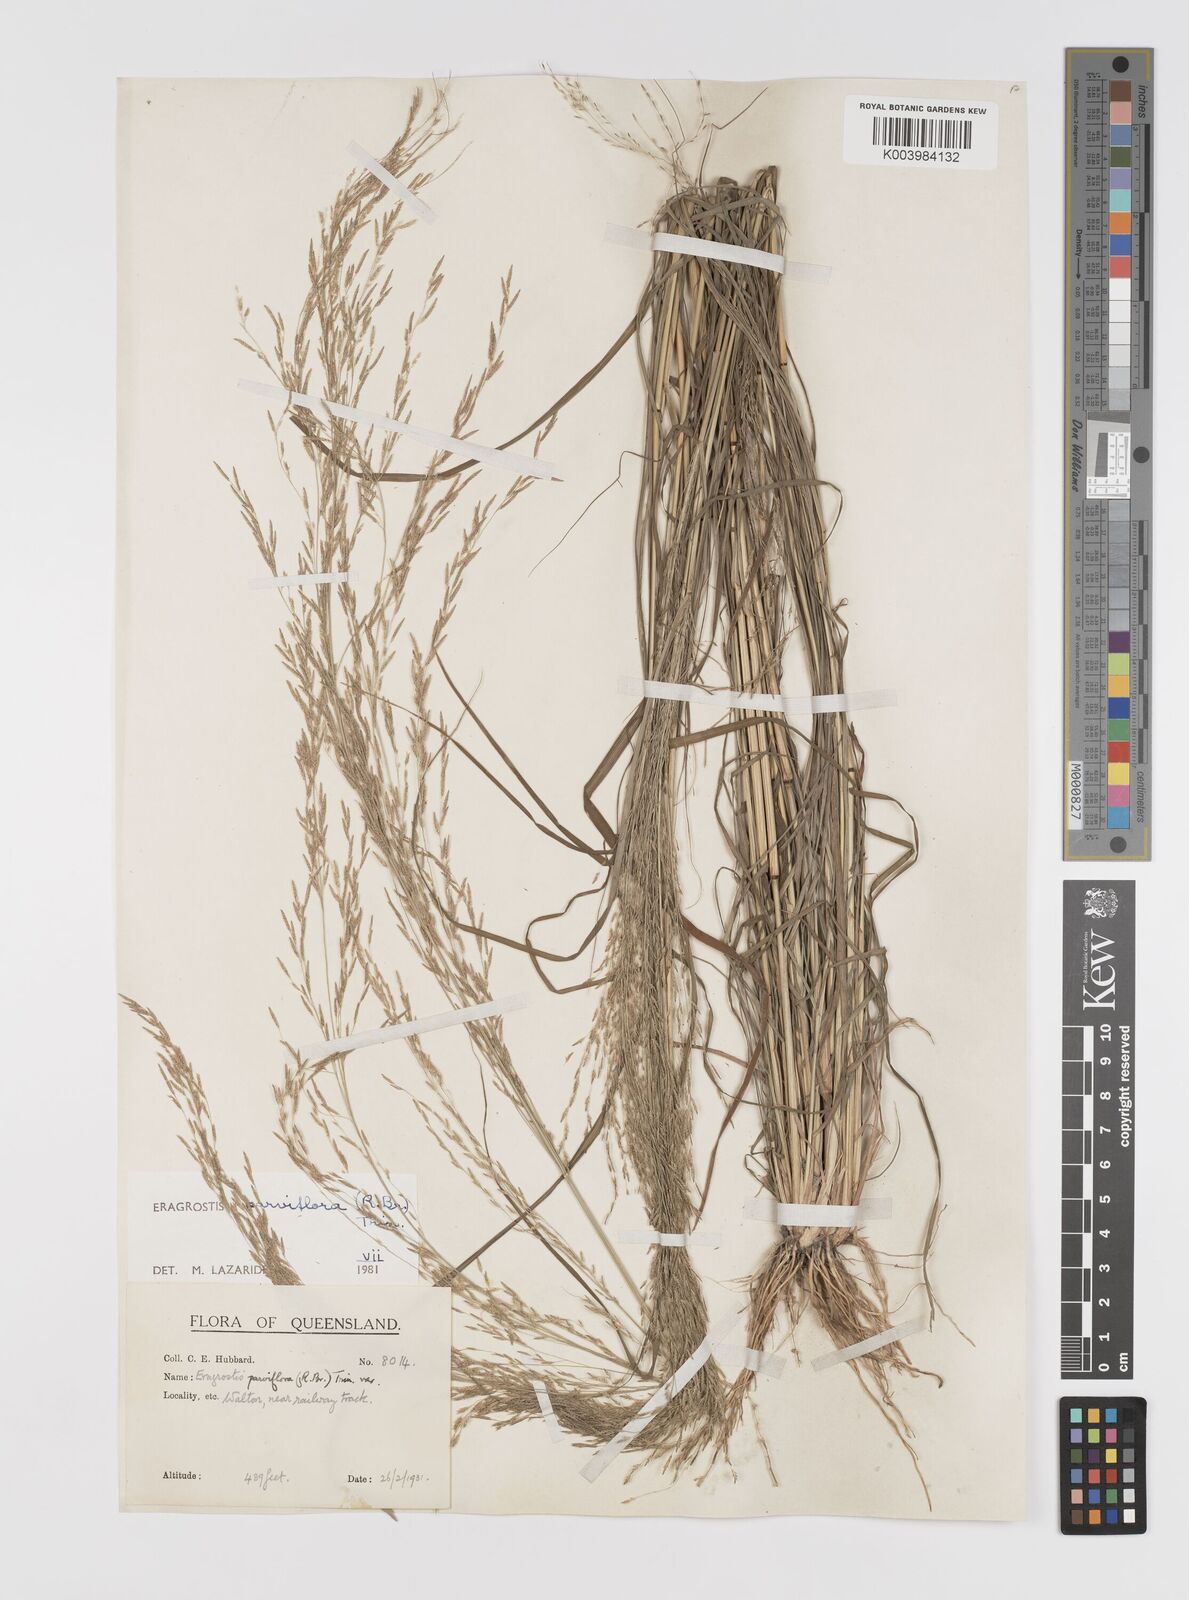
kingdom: Plantae
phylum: Tracheophyta
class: Liliopsida
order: Poales
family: Poaceae
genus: Eragrostis
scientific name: Eragrostis parviflora
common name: Weeping love-grass
